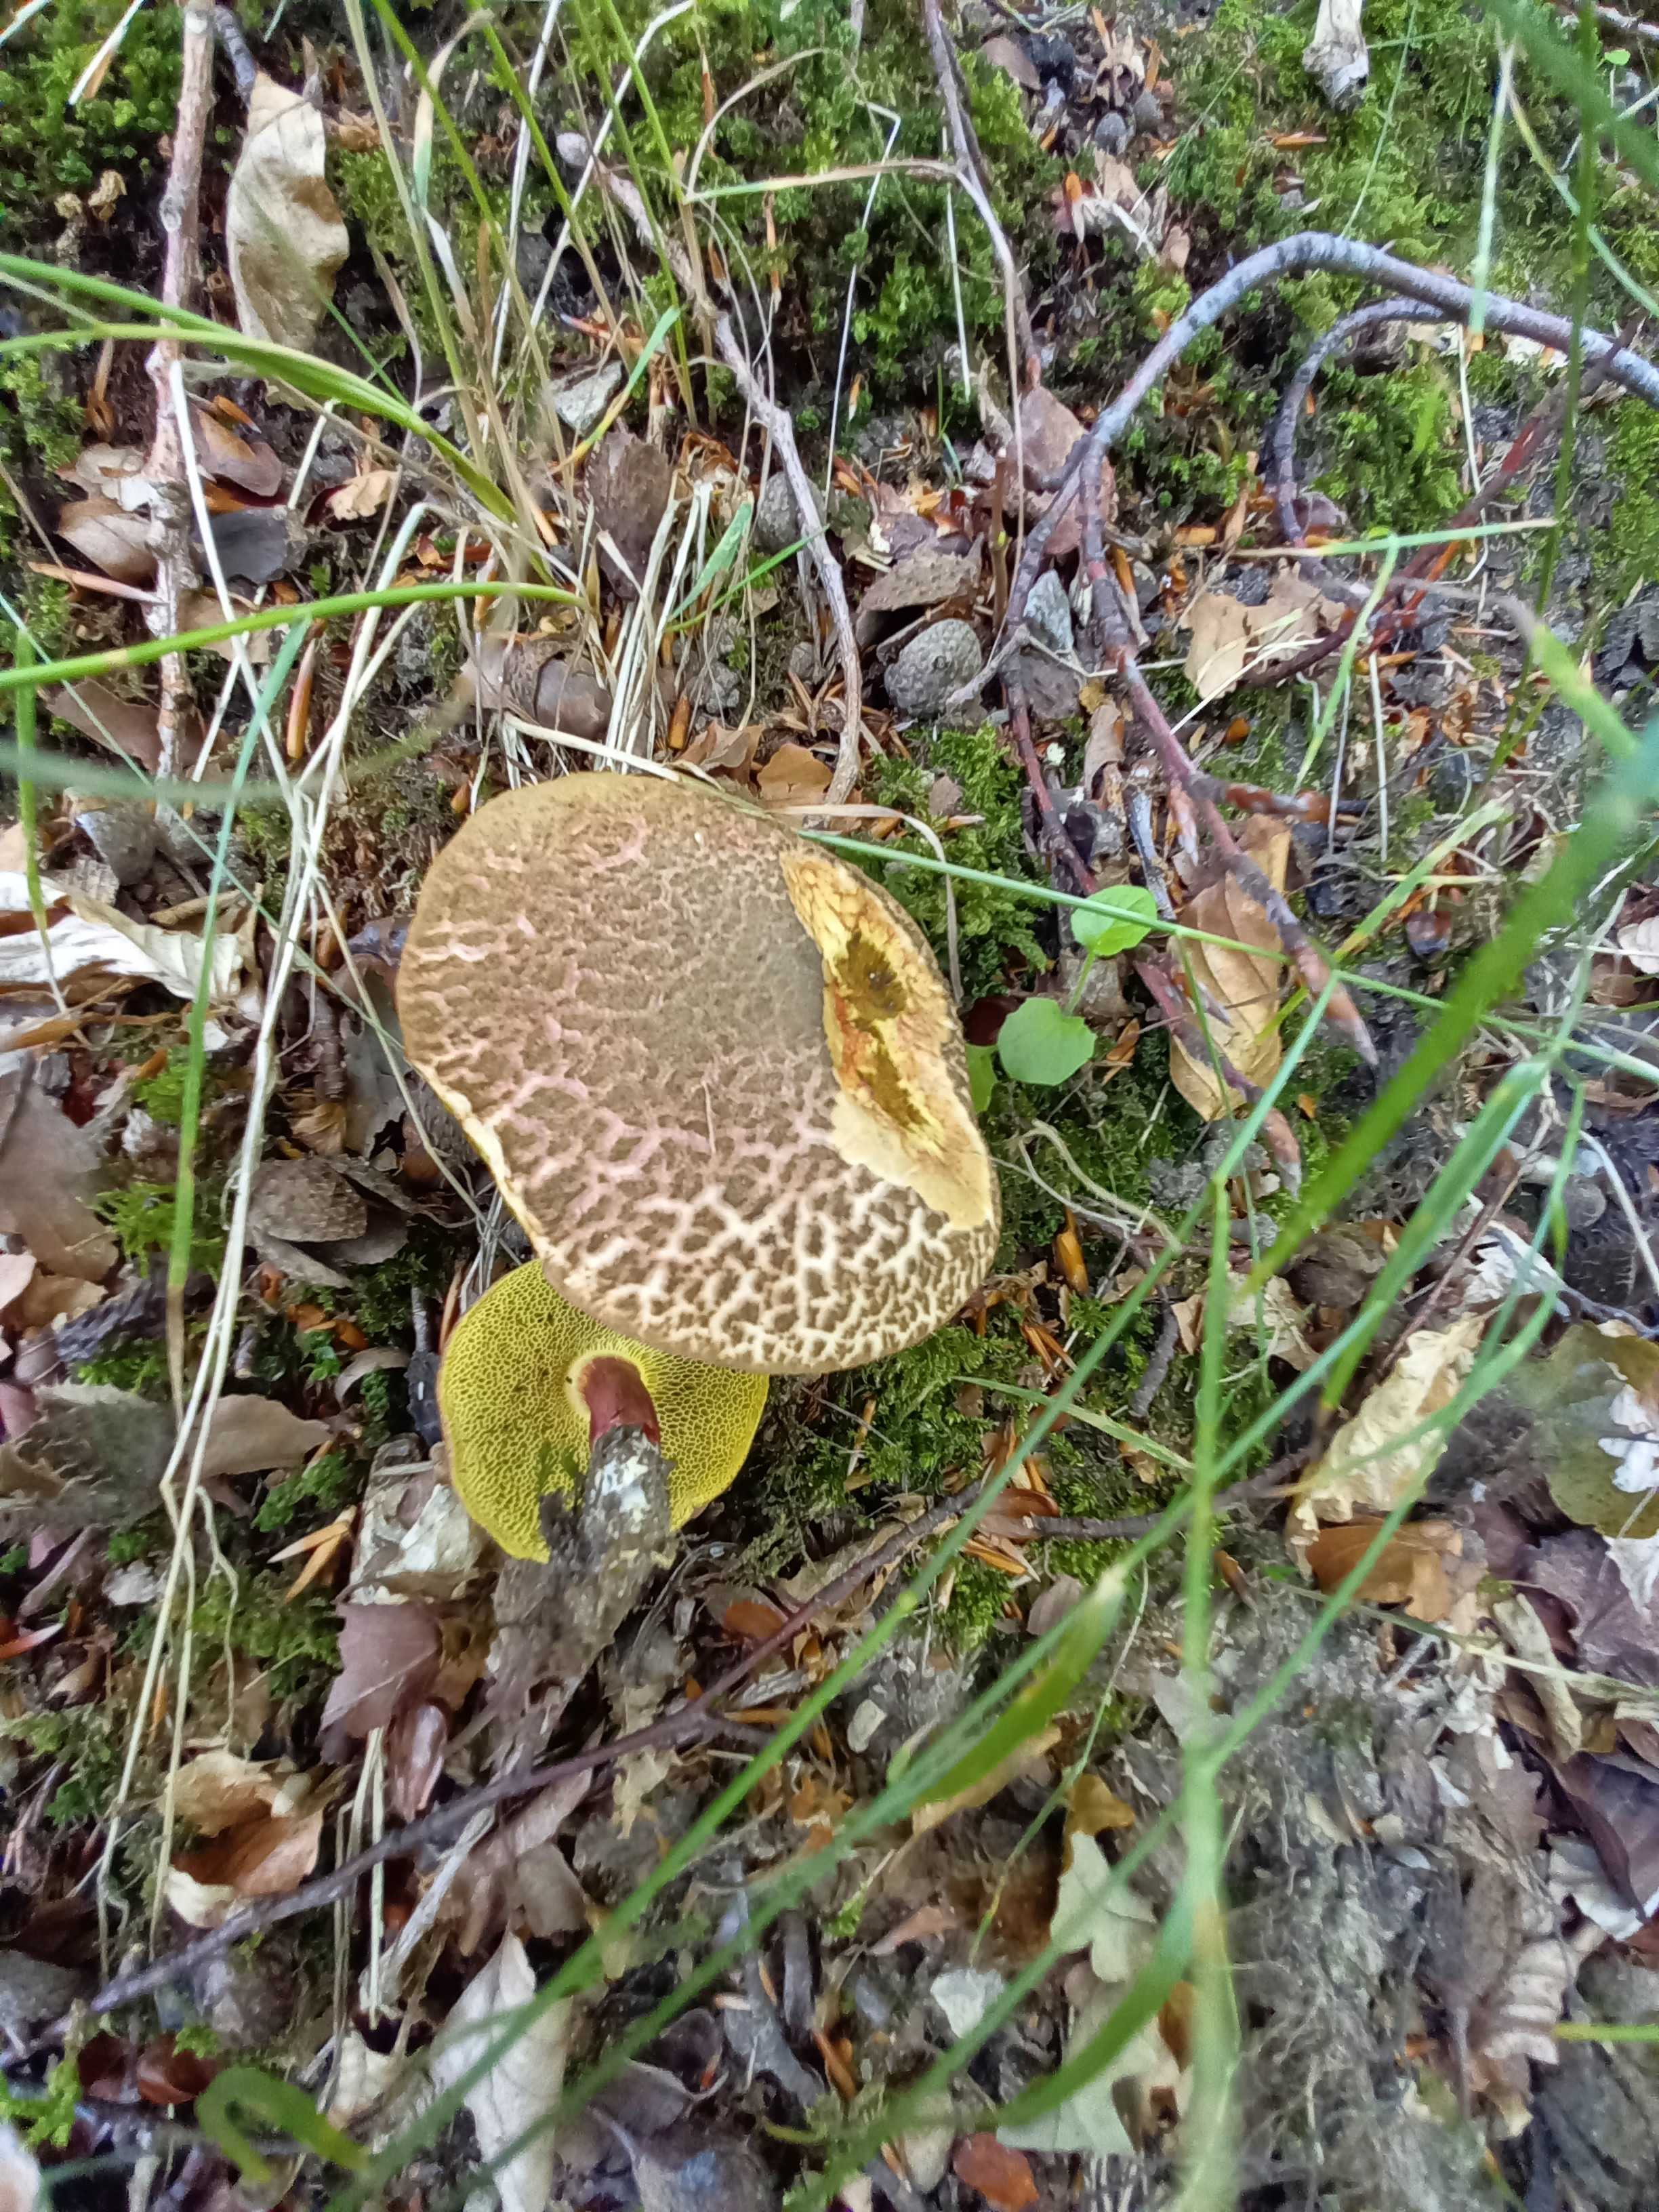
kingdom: Fungi
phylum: Basidiomycota
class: Agaricomycetes
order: Boletales
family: Boletaceae
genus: Xerocomellus
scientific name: Xerocomellus chrysenteron
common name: rødsprukken rørhat
